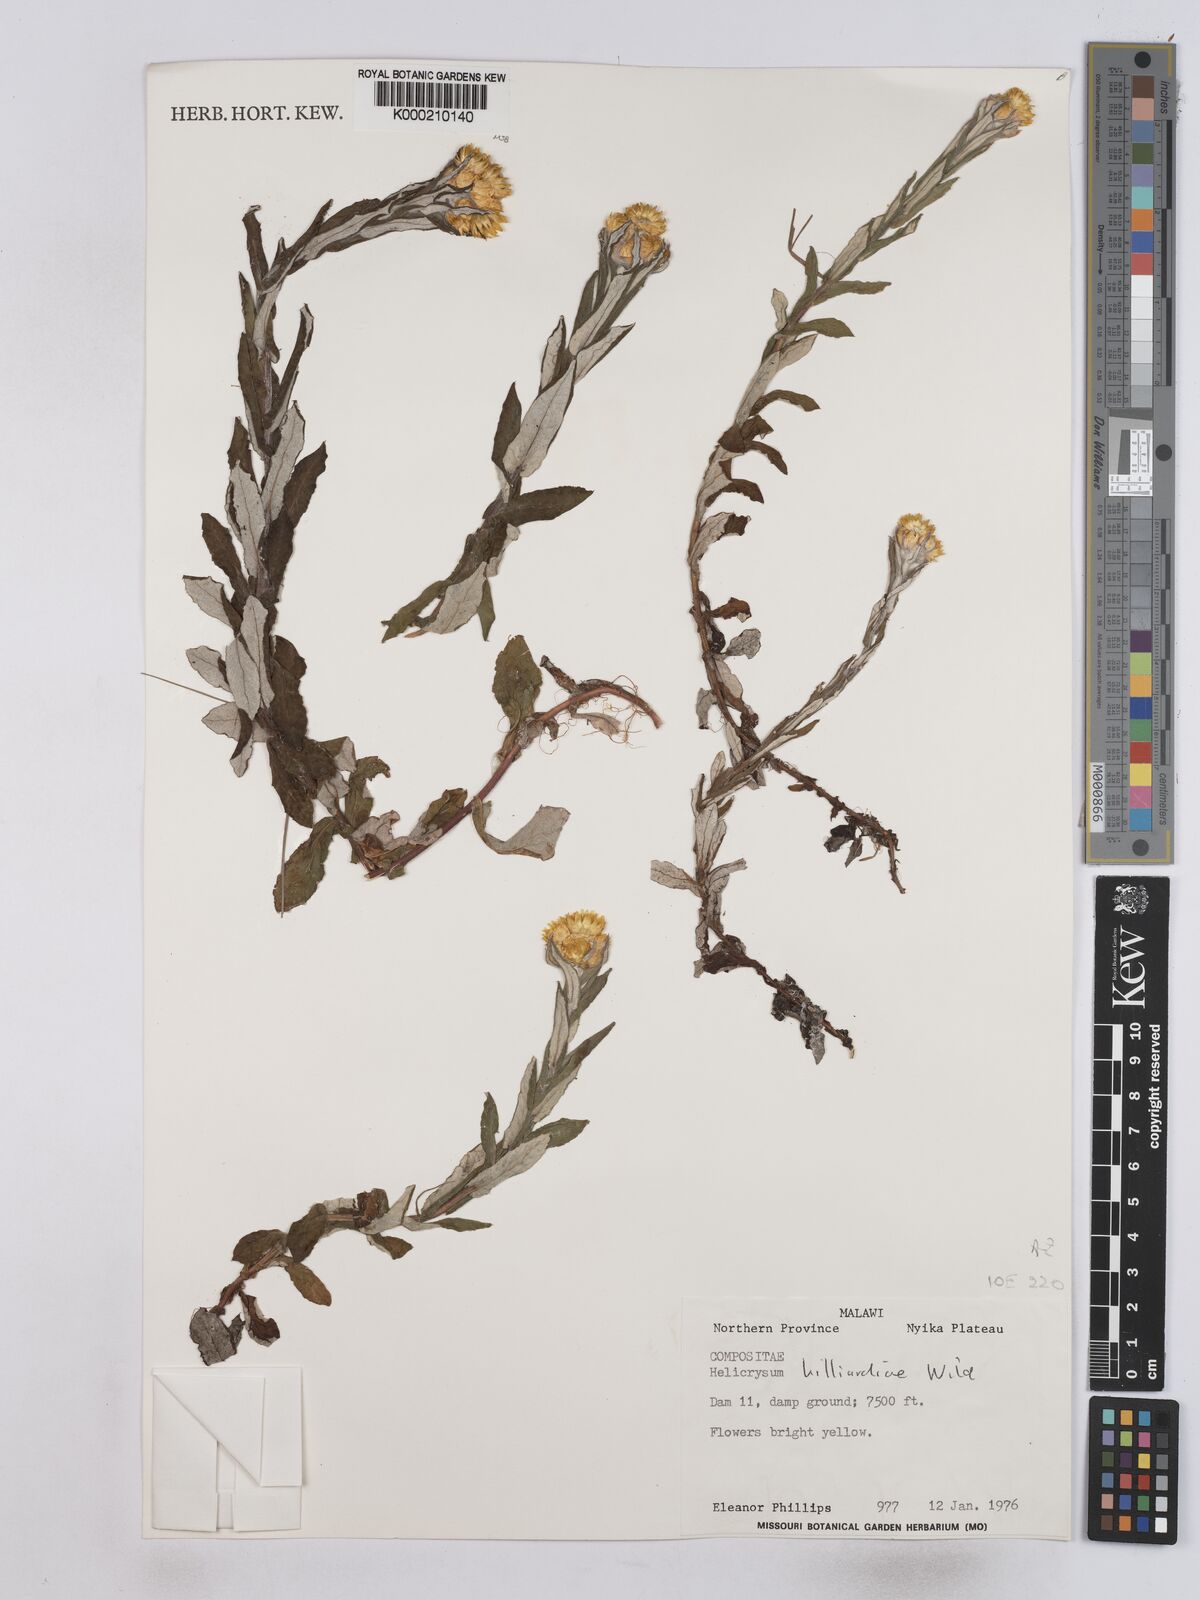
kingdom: Plantae
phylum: Tracheophyta
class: Magnoliopsida
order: Asterales
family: Asteraceae
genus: Helichrysum
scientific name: Helichrysum hilliardiae
